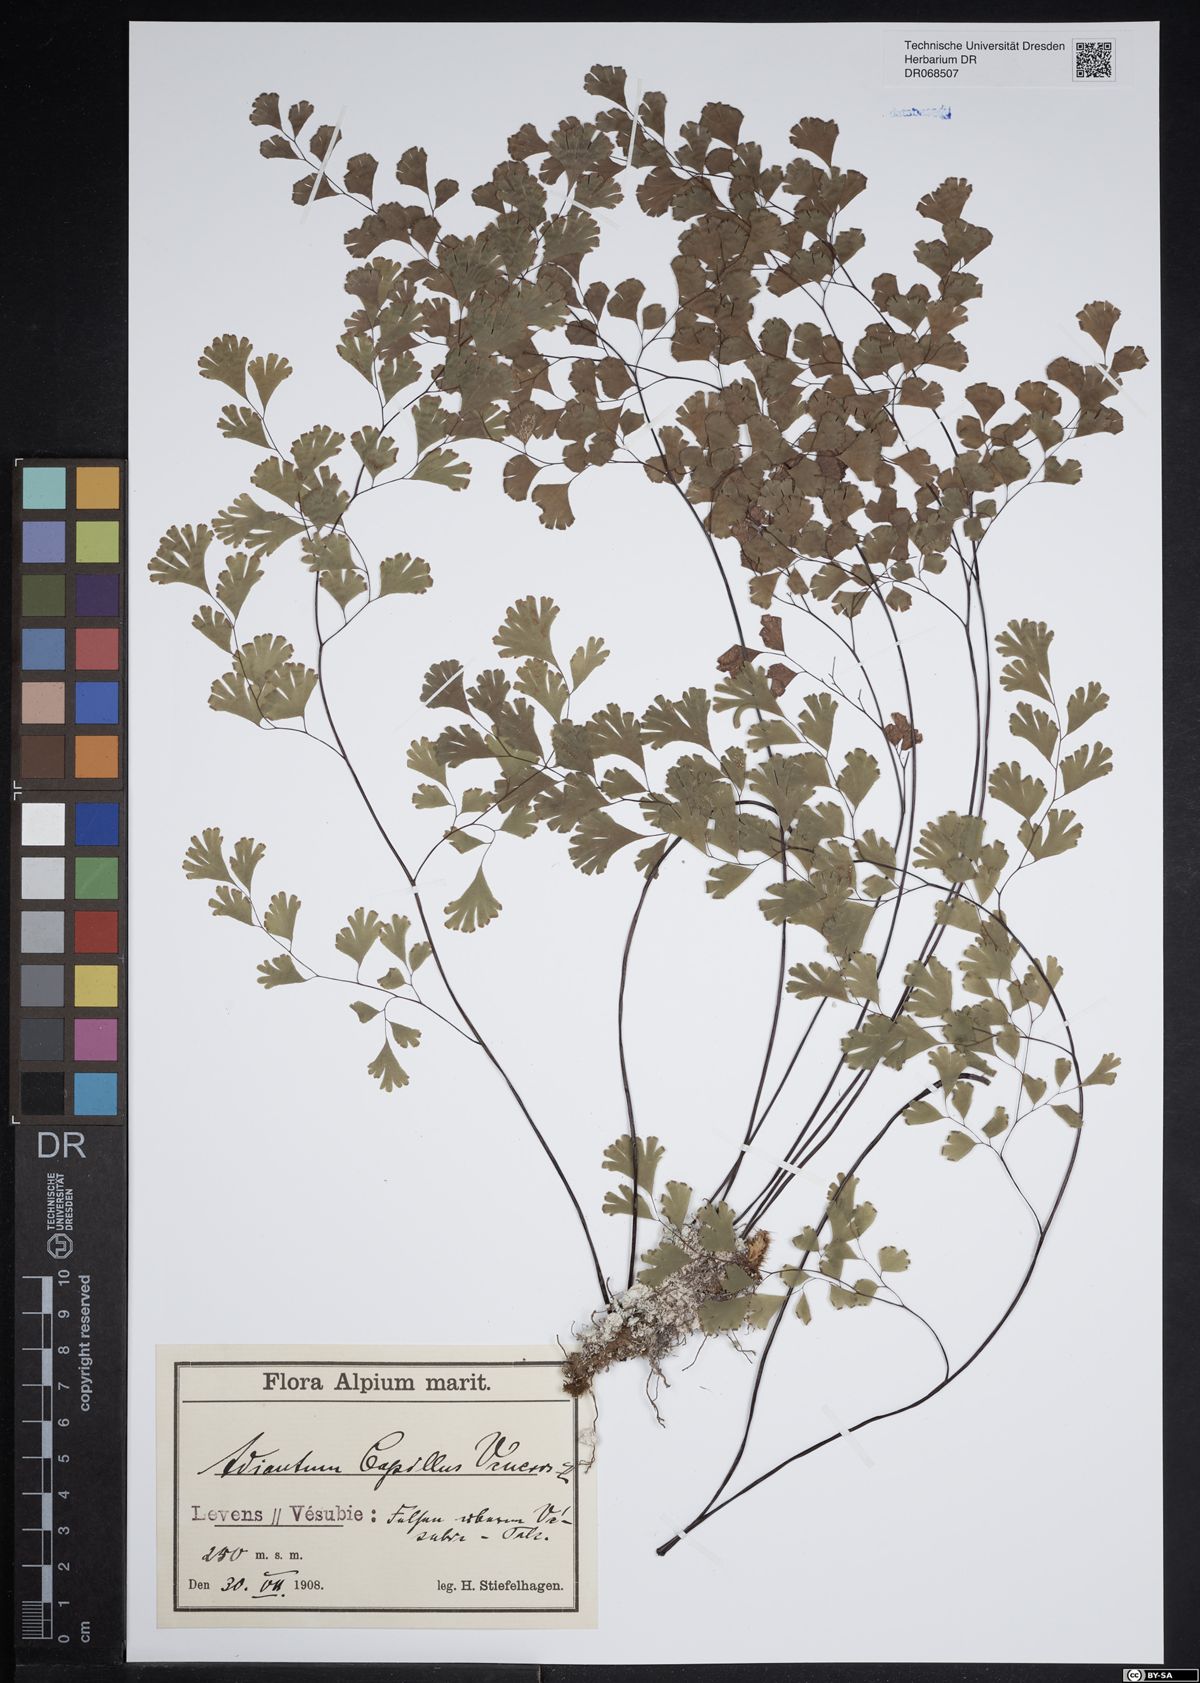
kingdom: Plantae
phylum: Tracheophyta
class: Polypodiopsida
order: Polypodiales
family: Pteridaceae
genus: Adiantum
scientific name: Adiantum capillus-veneris
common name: Maidenhair fern
